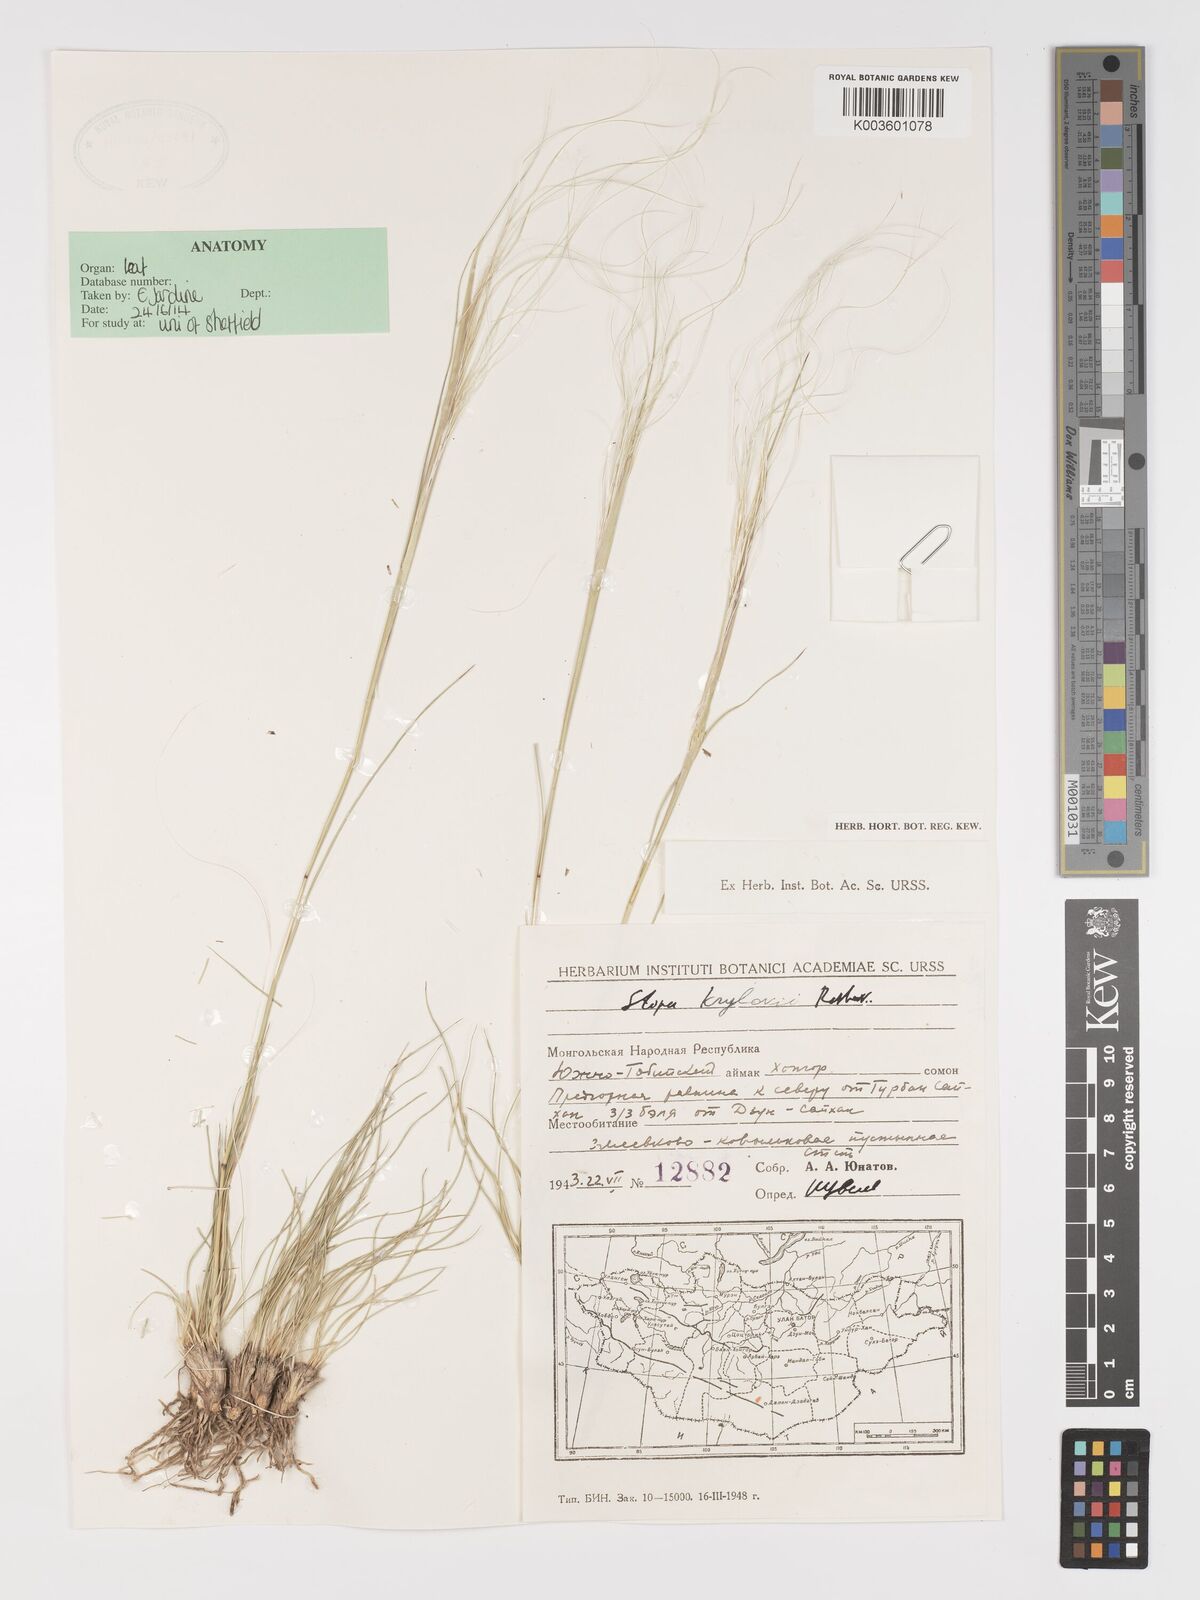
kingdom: Plantae
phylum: Tracheophyta
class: Liliopsida
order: Poales
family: Poaceae
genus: Stipa
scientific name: Stipa krylovii
